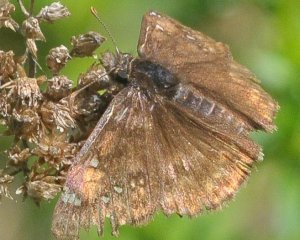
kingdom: Animalia
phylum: Arthropoda
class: Insecta
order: Lepidoptera
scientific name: Lepidoptera
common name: Butterflies
